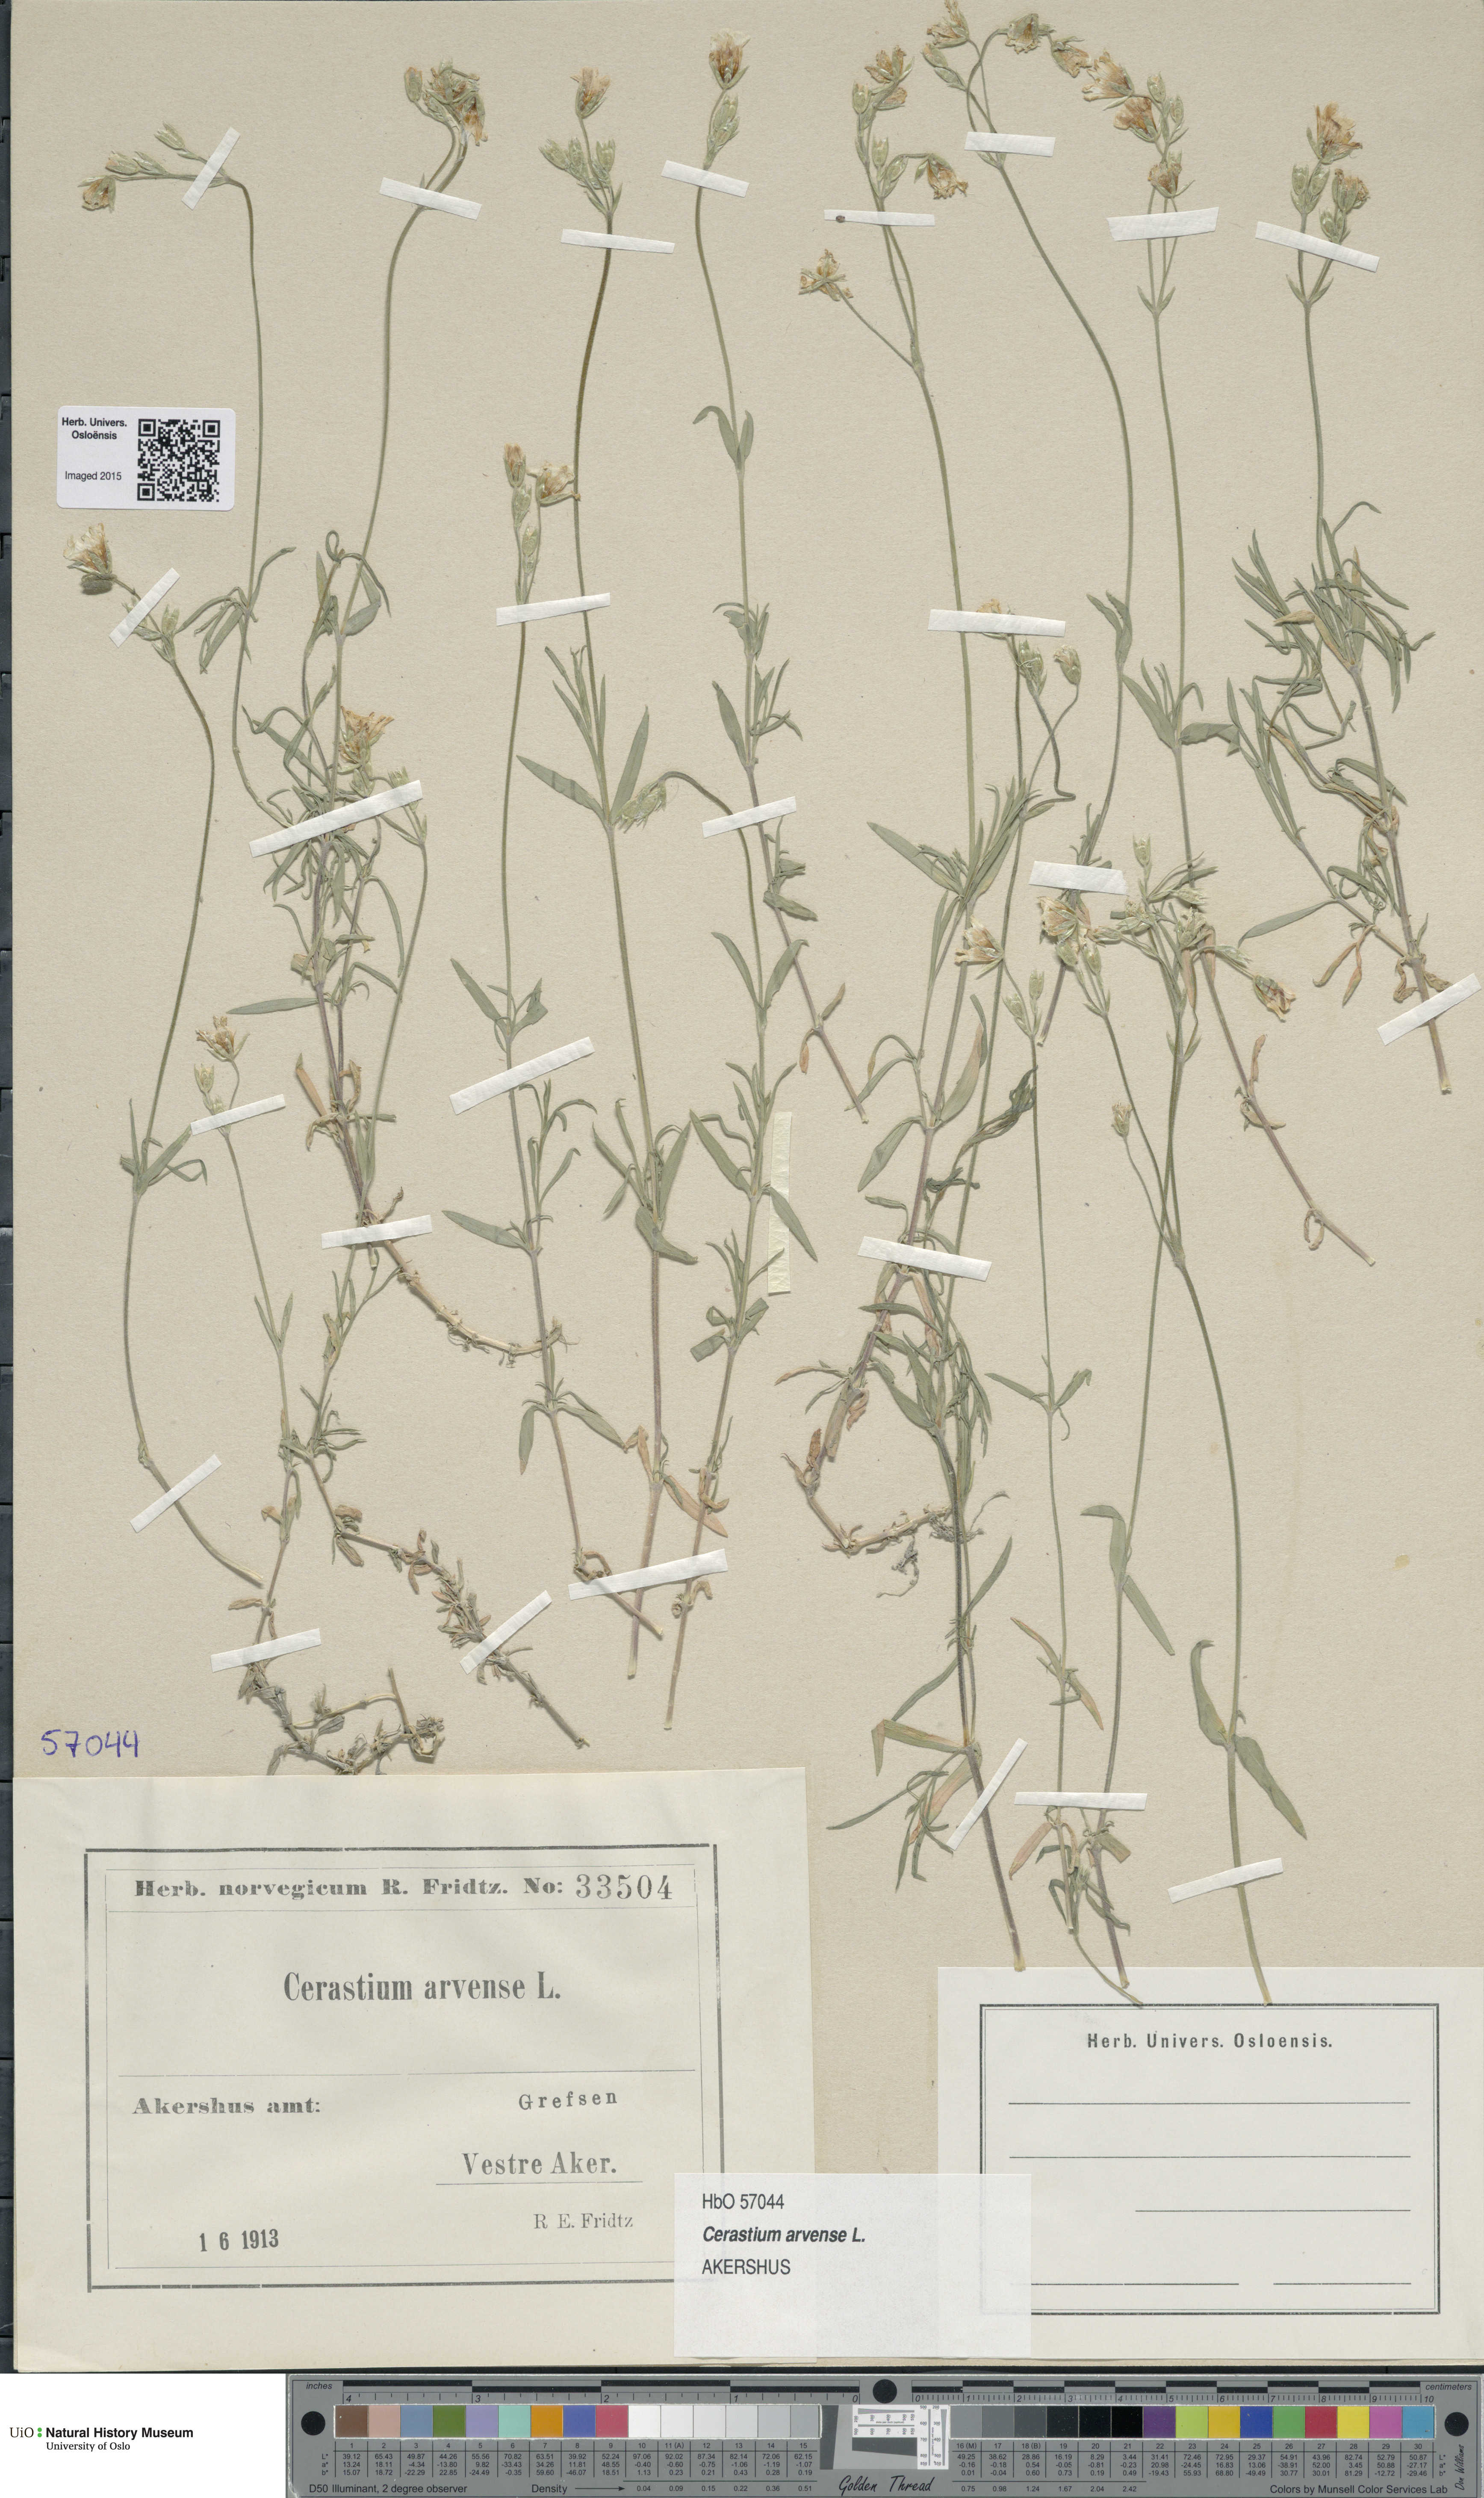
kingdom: Plantae
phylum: Tracheophyta
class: Magnoliopsida
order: Caryophyllales
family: Caryophyllaceae
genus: Cerastium
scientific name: Cerastium arvense
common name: Field mouse-ear
